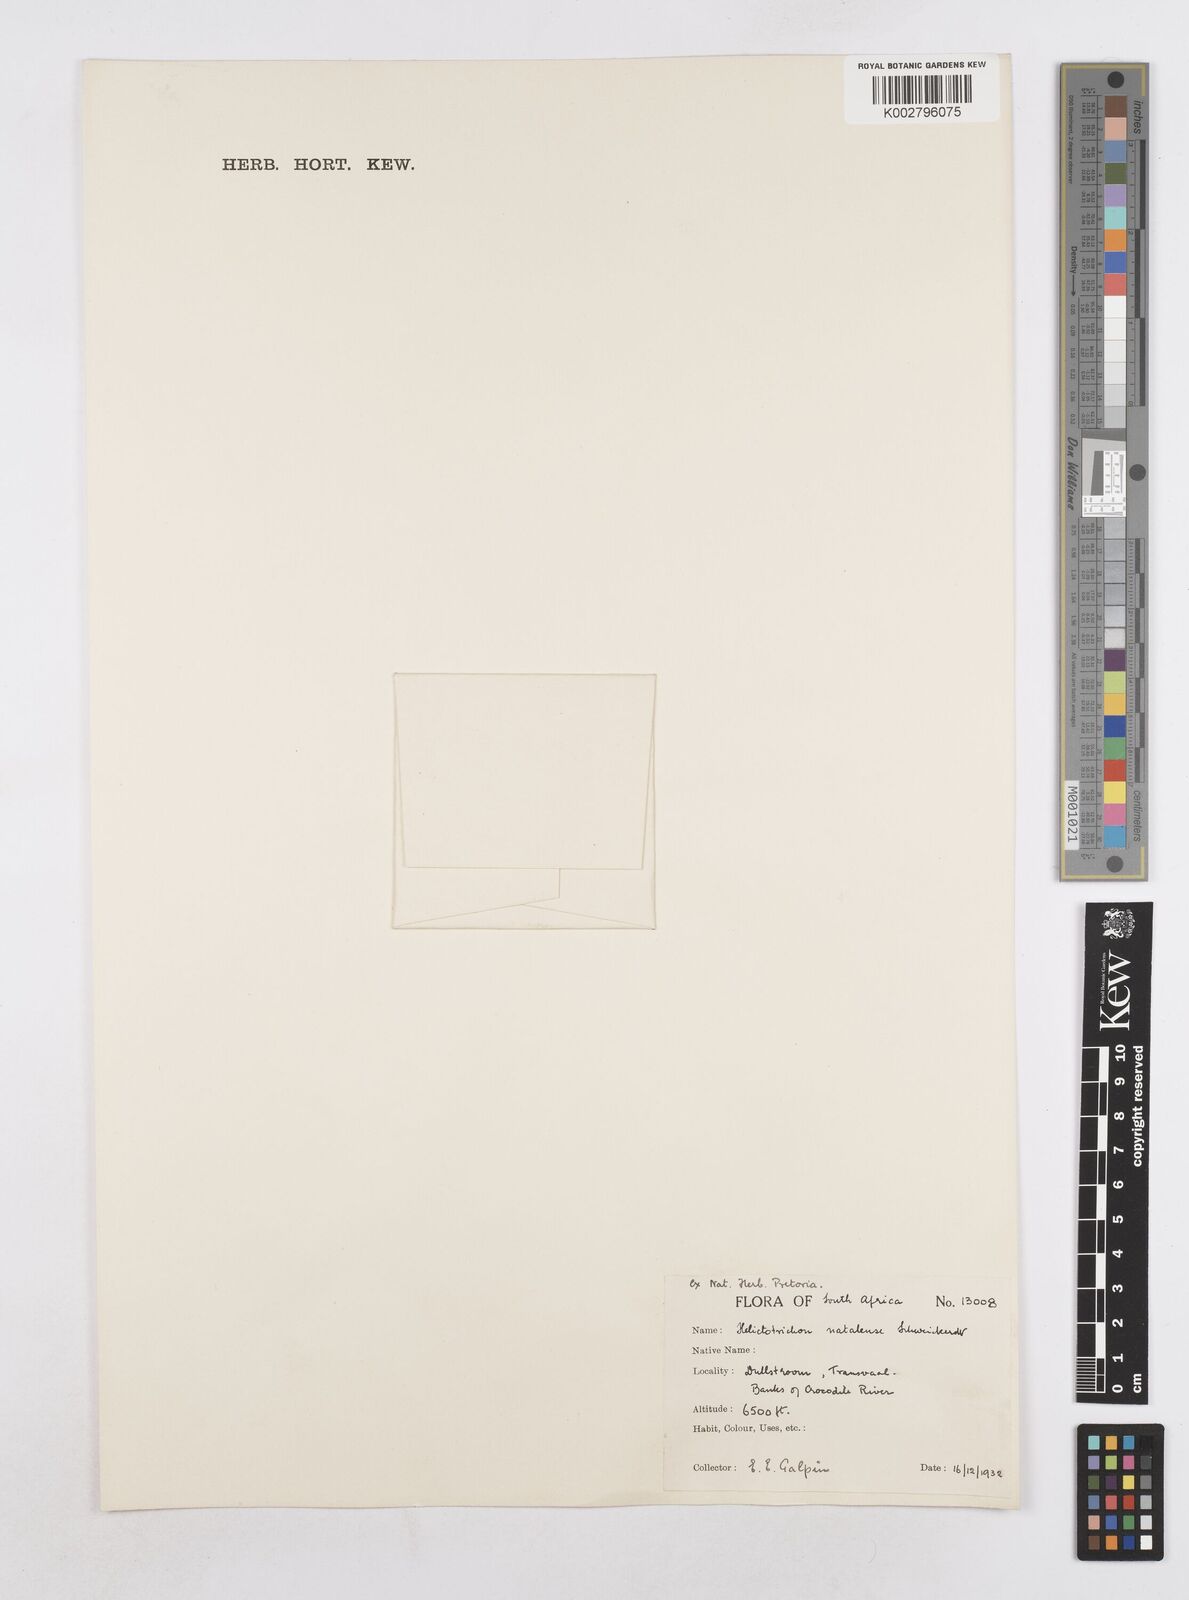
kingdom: Plantae
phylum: Tracheophyta
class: Liliopsida
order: Poales
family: Poaceae
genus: Trisetopsis
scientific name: Trisetopsis natalensis
